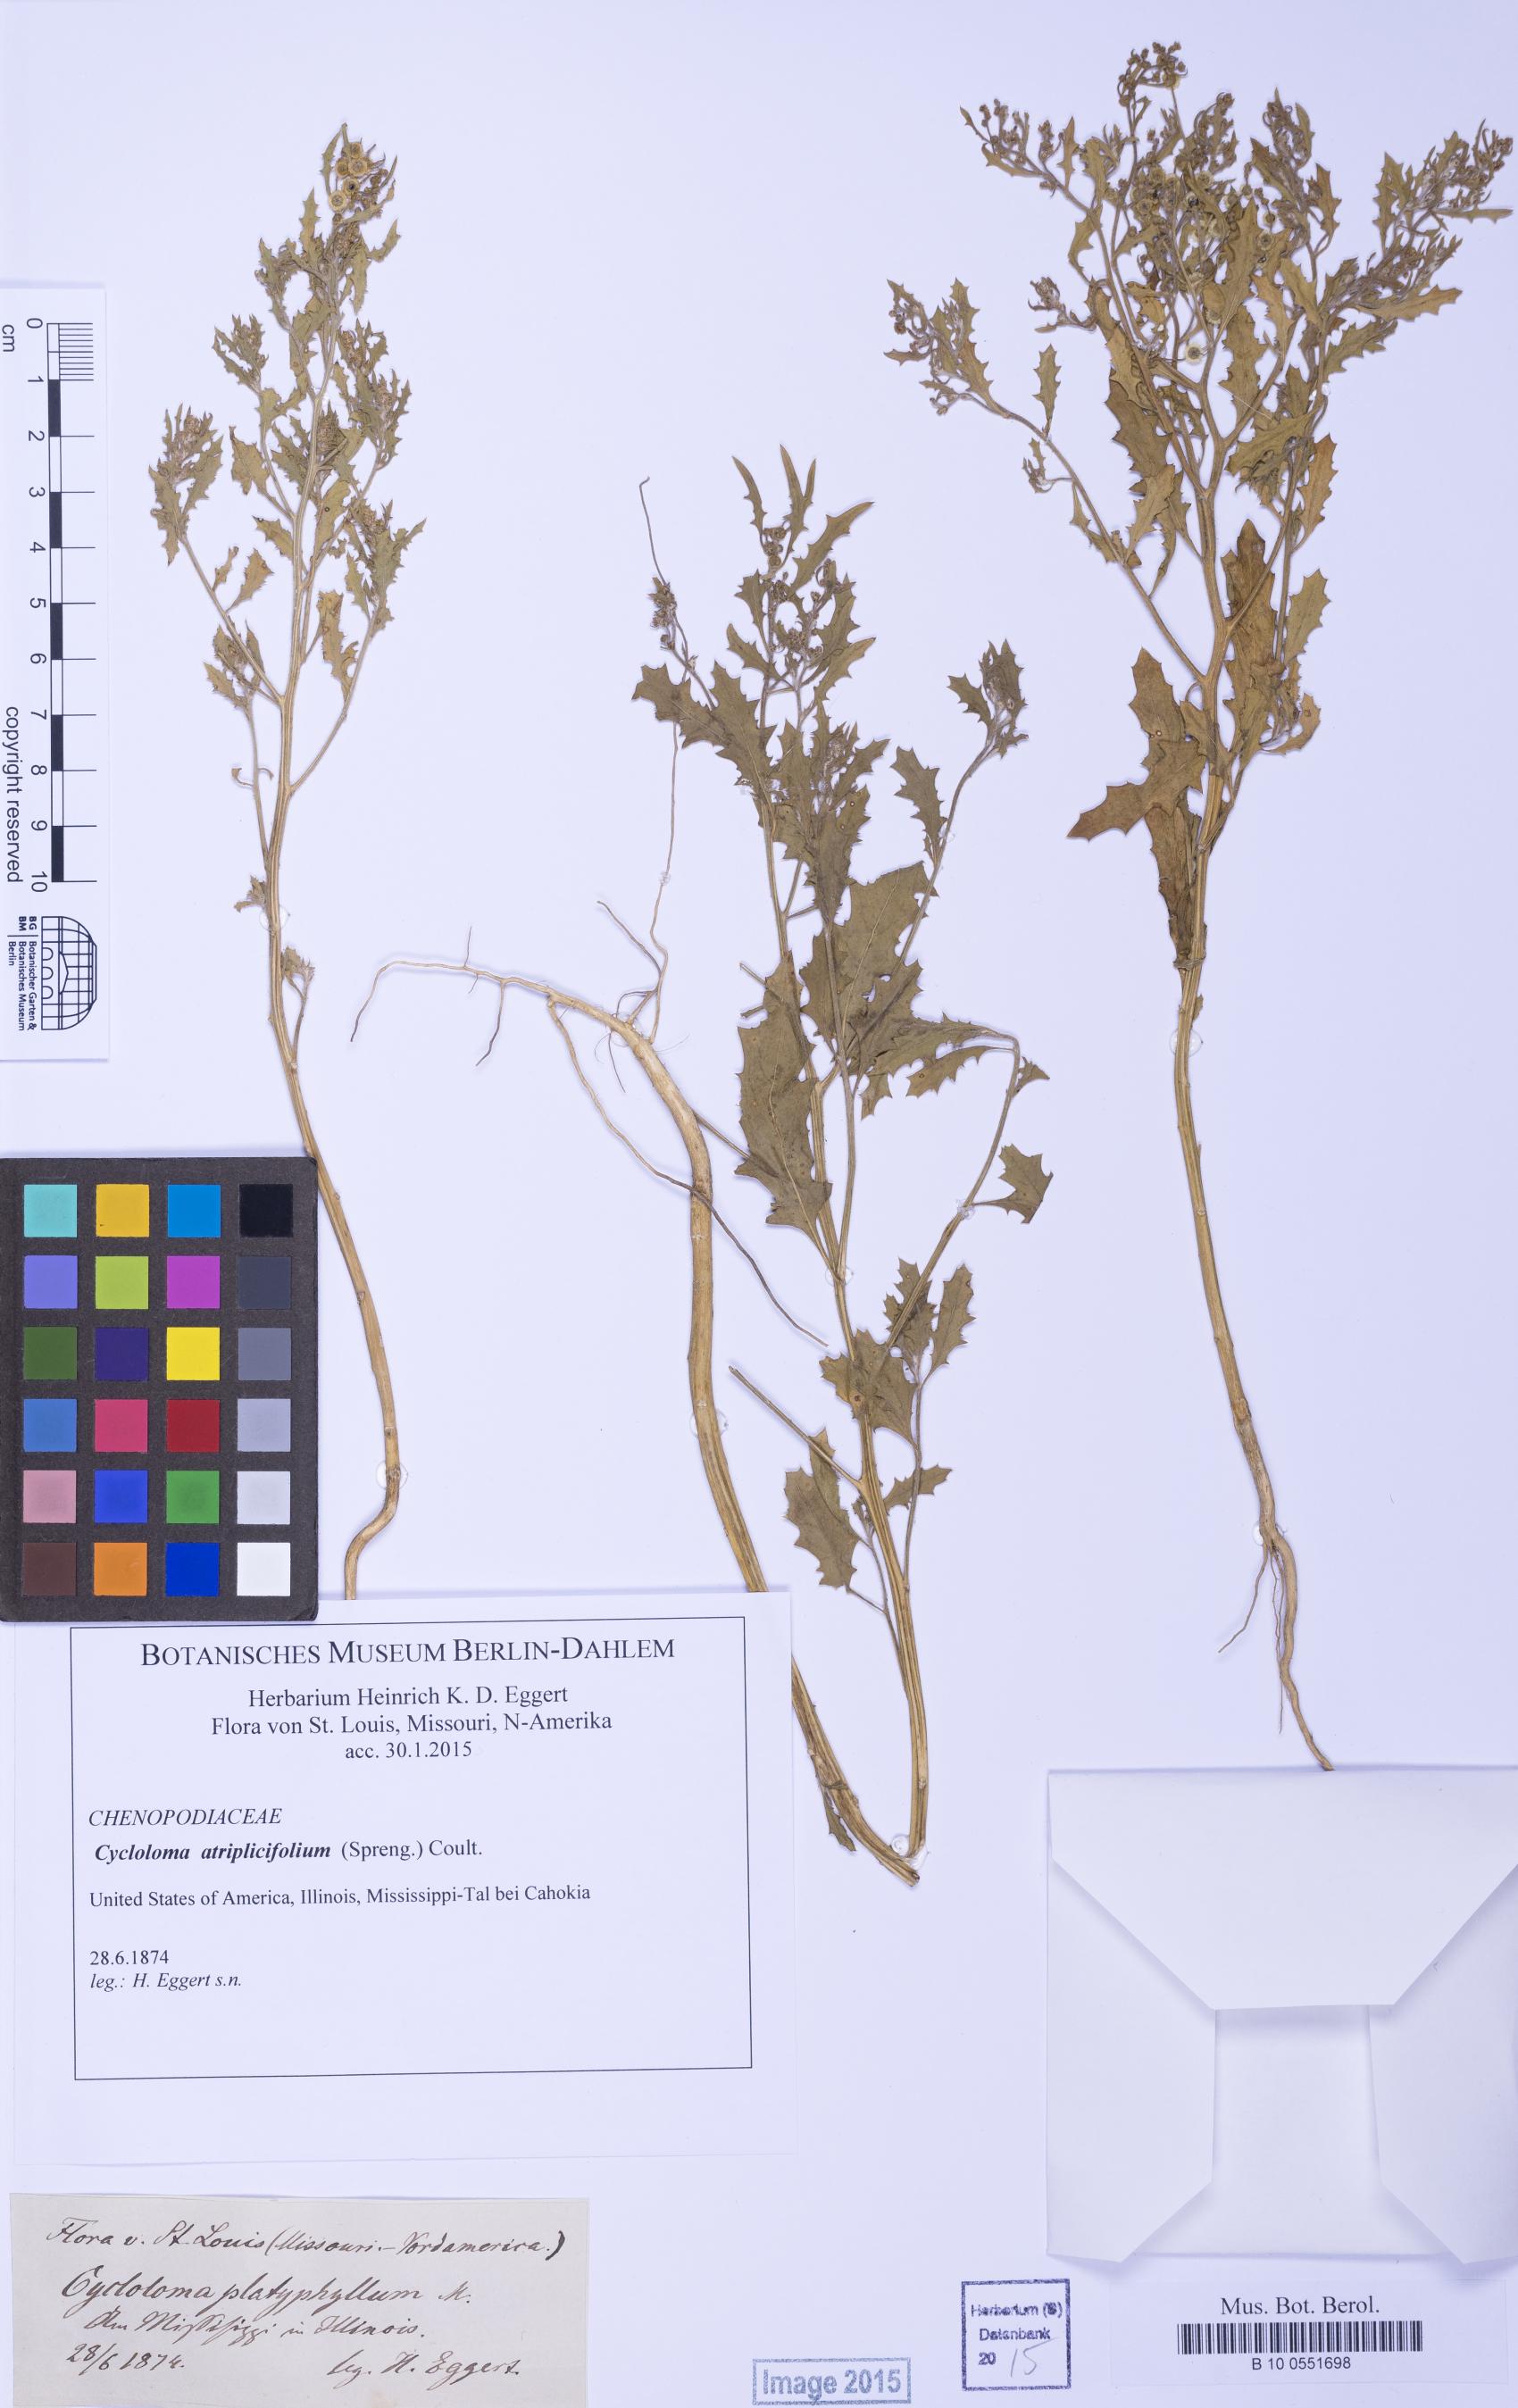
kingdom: Plantae
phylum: Tracheophyta
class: Magnoliopsida
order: Caryophyllales
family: Amaranthaceae
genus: Dysphania
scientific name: Dysphania atriplicifolia
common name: Plains tumbleweed
